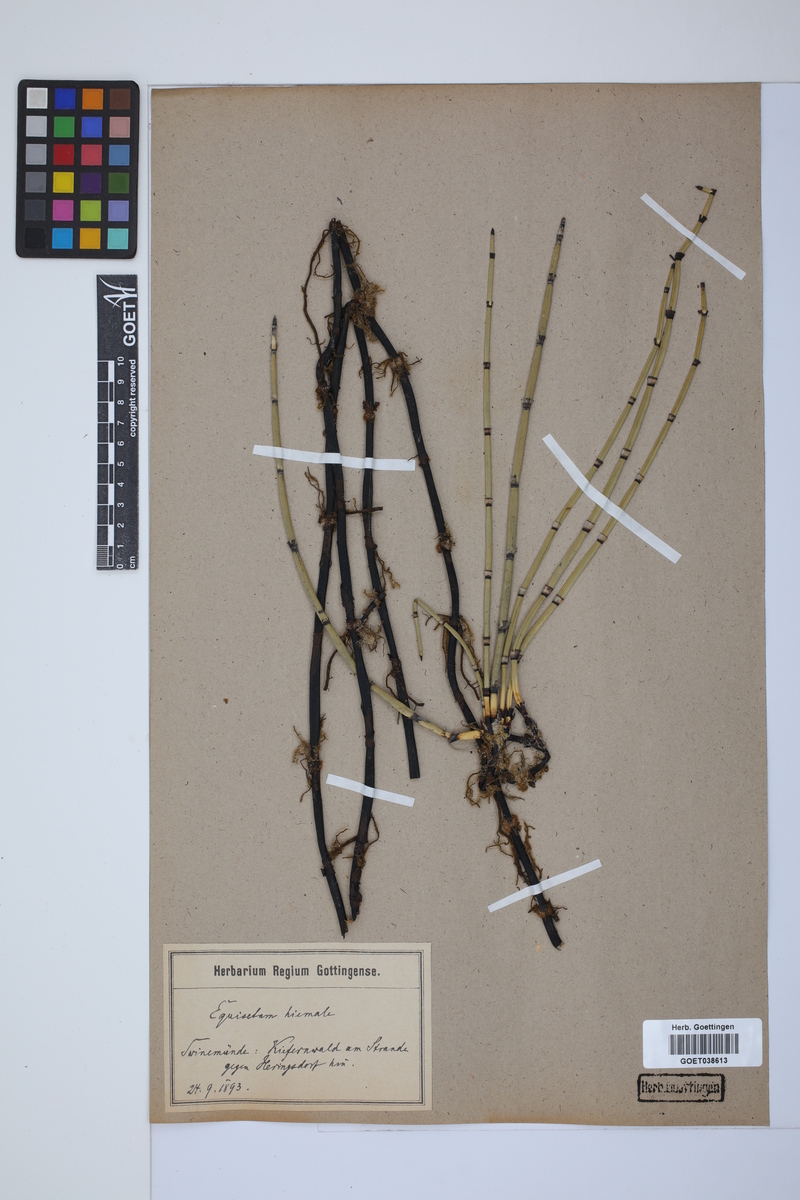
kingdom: Plantae
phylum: Tracheophyta
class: Polypodiopsida
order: Equisetales
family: Equisetaceae
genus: Equisetum
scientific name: Equisetum hyemale
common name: Rough horsetail
